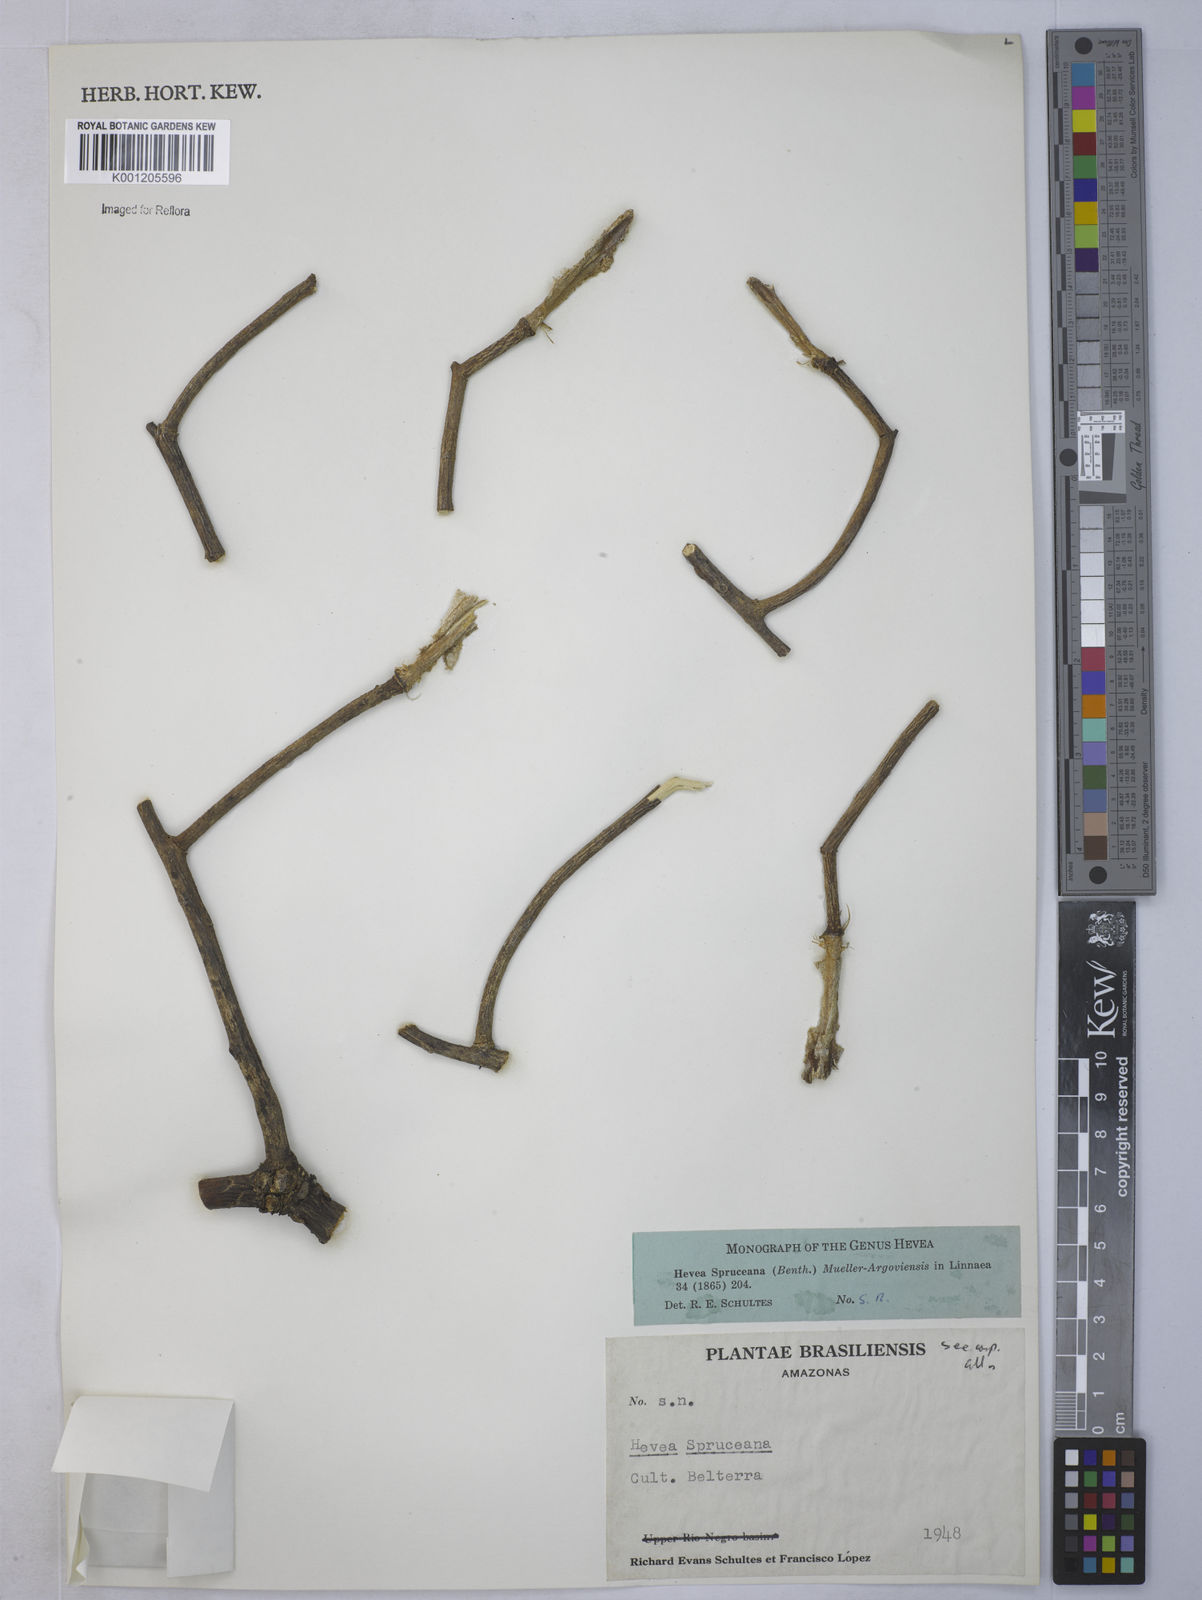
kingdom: Plantae
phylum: Tracheophyta
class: Magnoliopsida
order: Malpighiales
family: Euphorbiaceae
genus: Hevea
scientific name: Hevea
